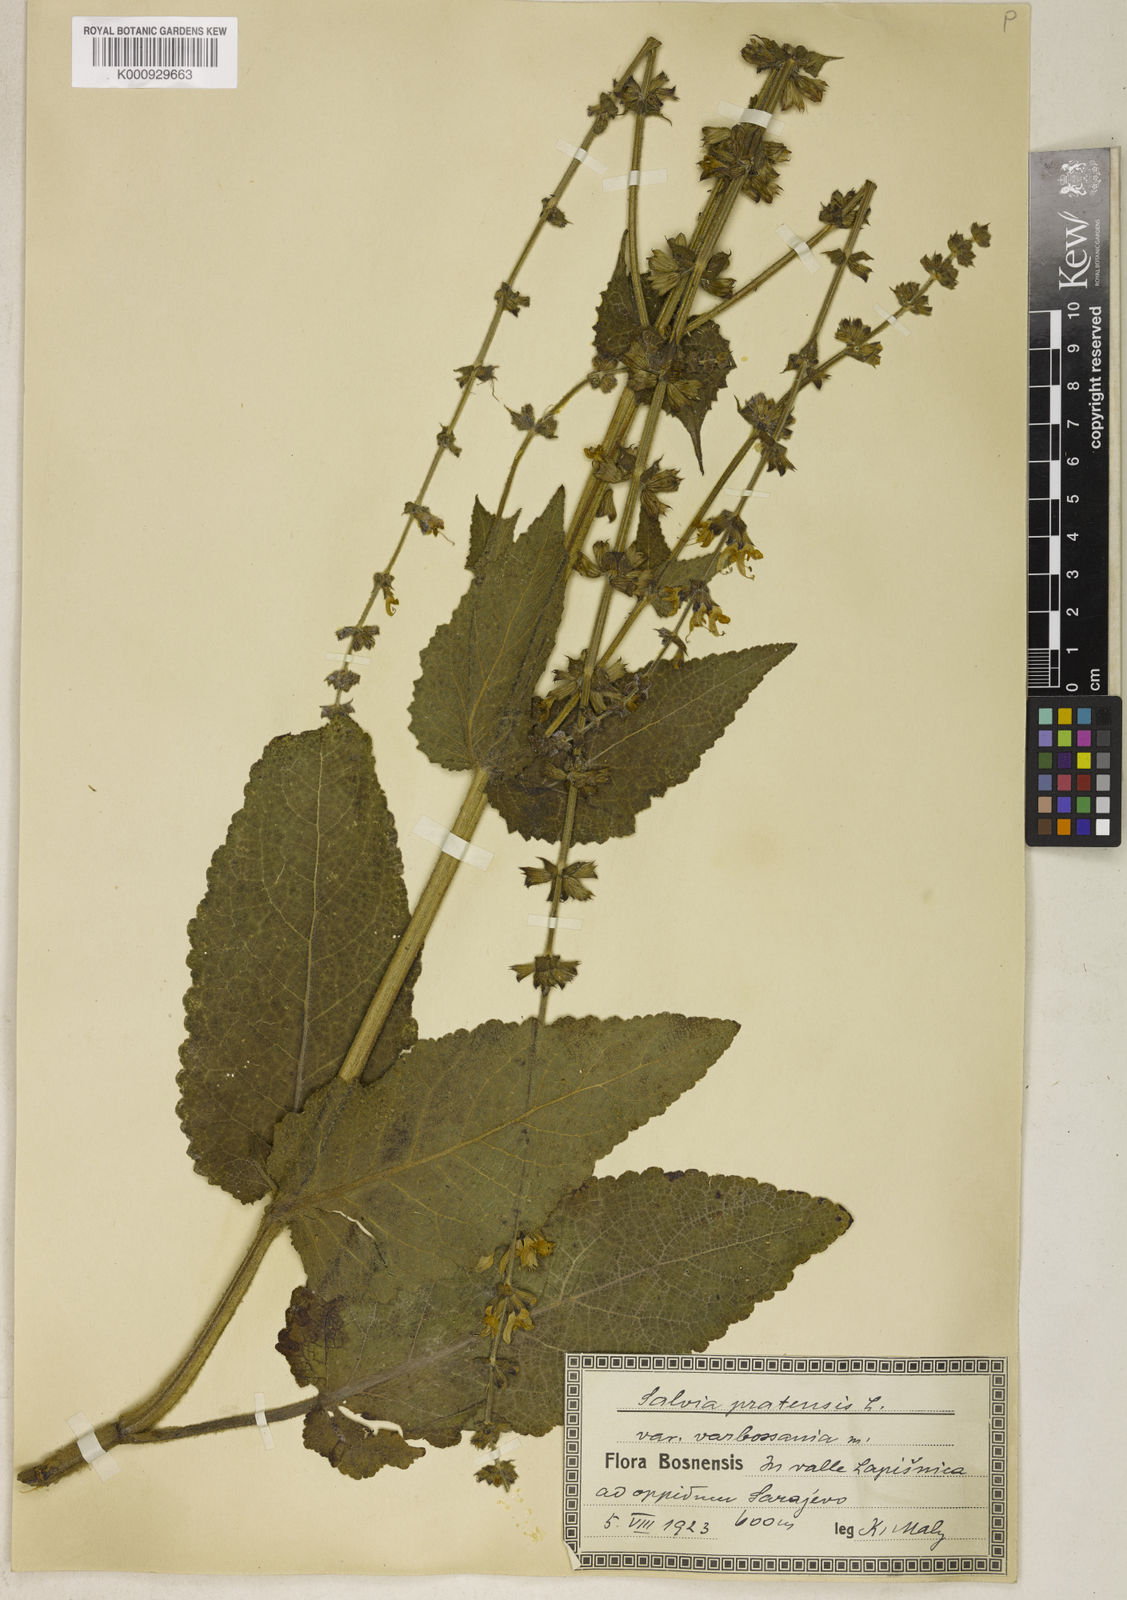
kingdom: Plantae
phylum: Tracheophyta
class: Magnoliopsida
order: Lamiales
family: Lamiaceae
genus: Salvia
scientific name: Salvia pratensis
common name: Meadow sage
